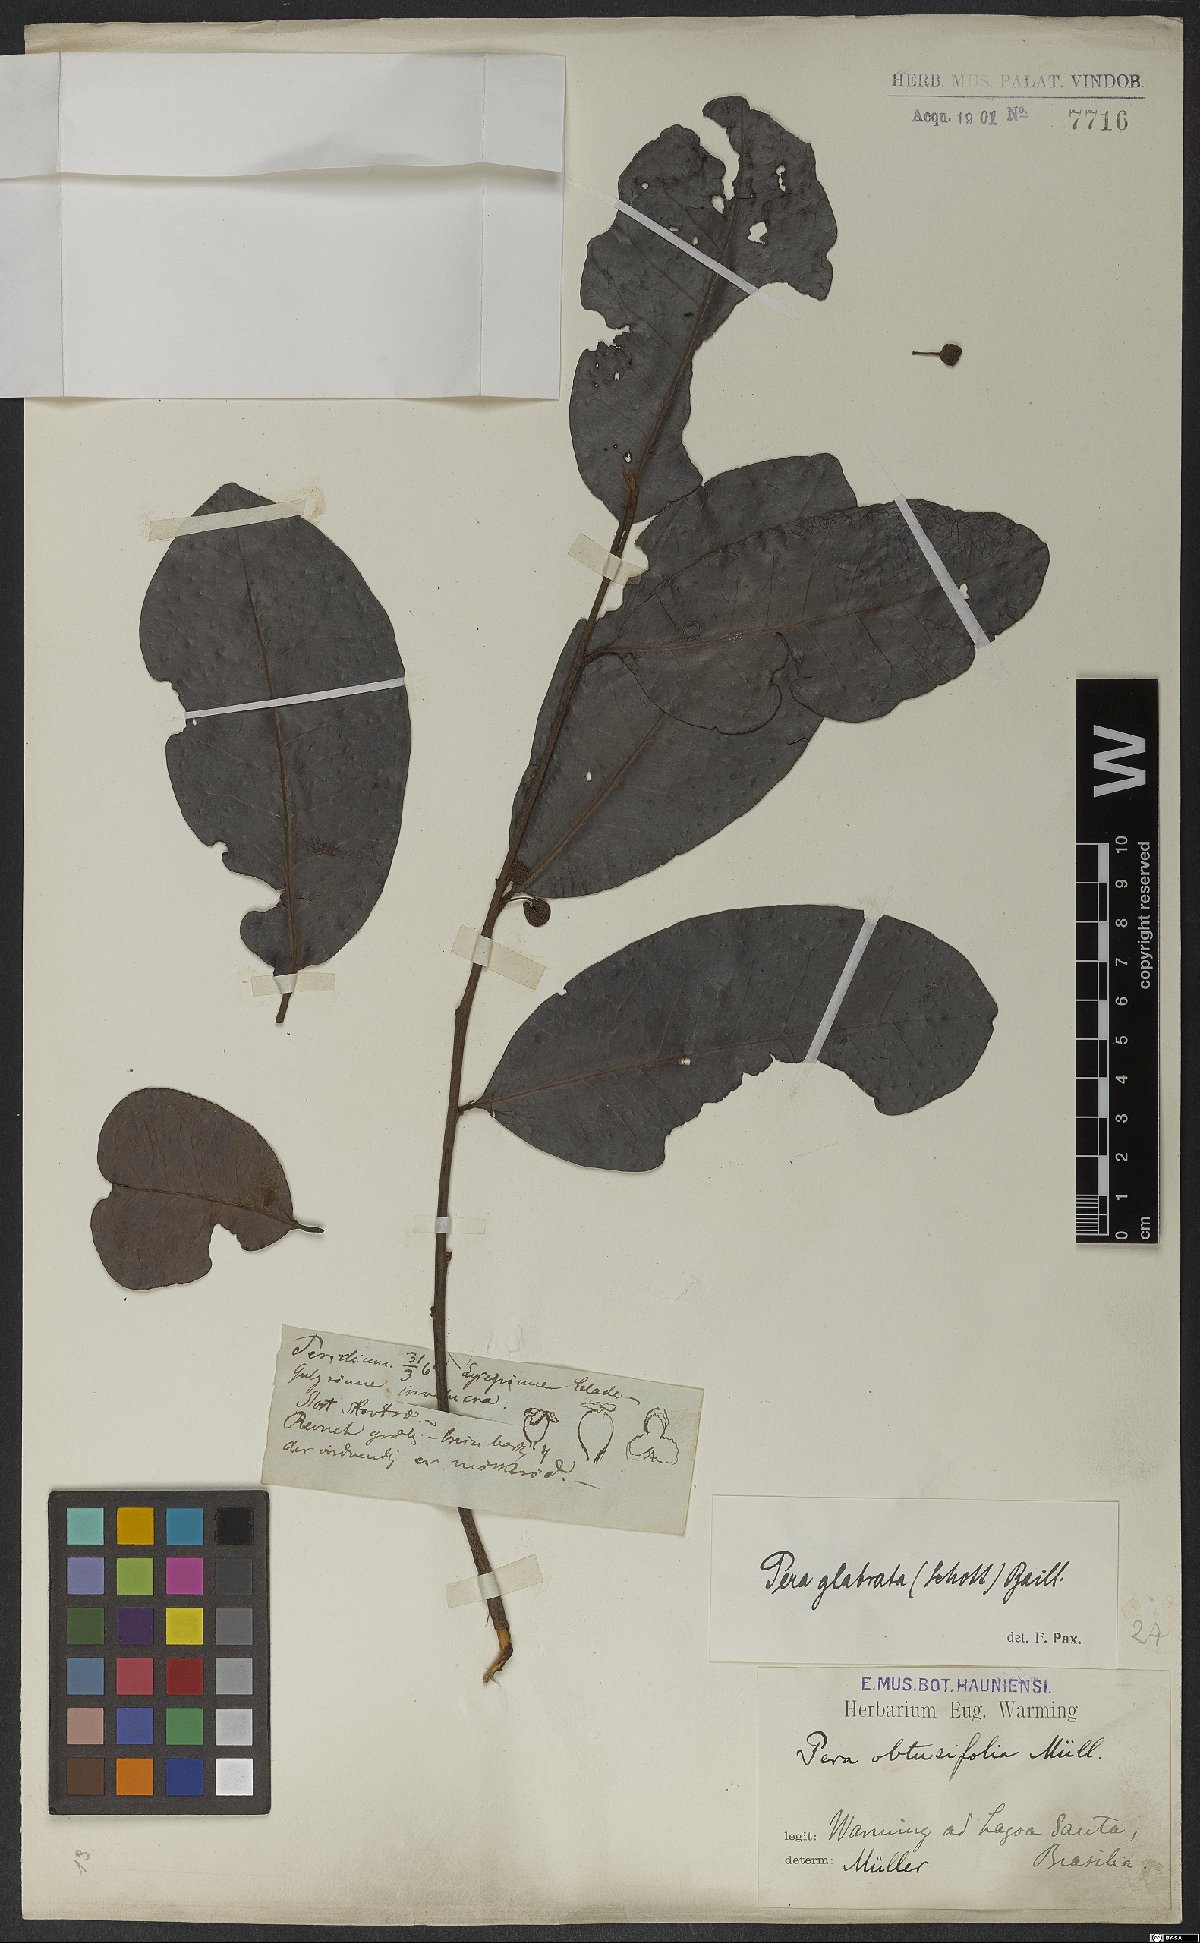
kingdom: Plantae
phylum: Tracheophyta
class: Magnoliopsida
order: Malpighiales
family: Peraceae
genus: Pera
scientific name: Pera glabrata
